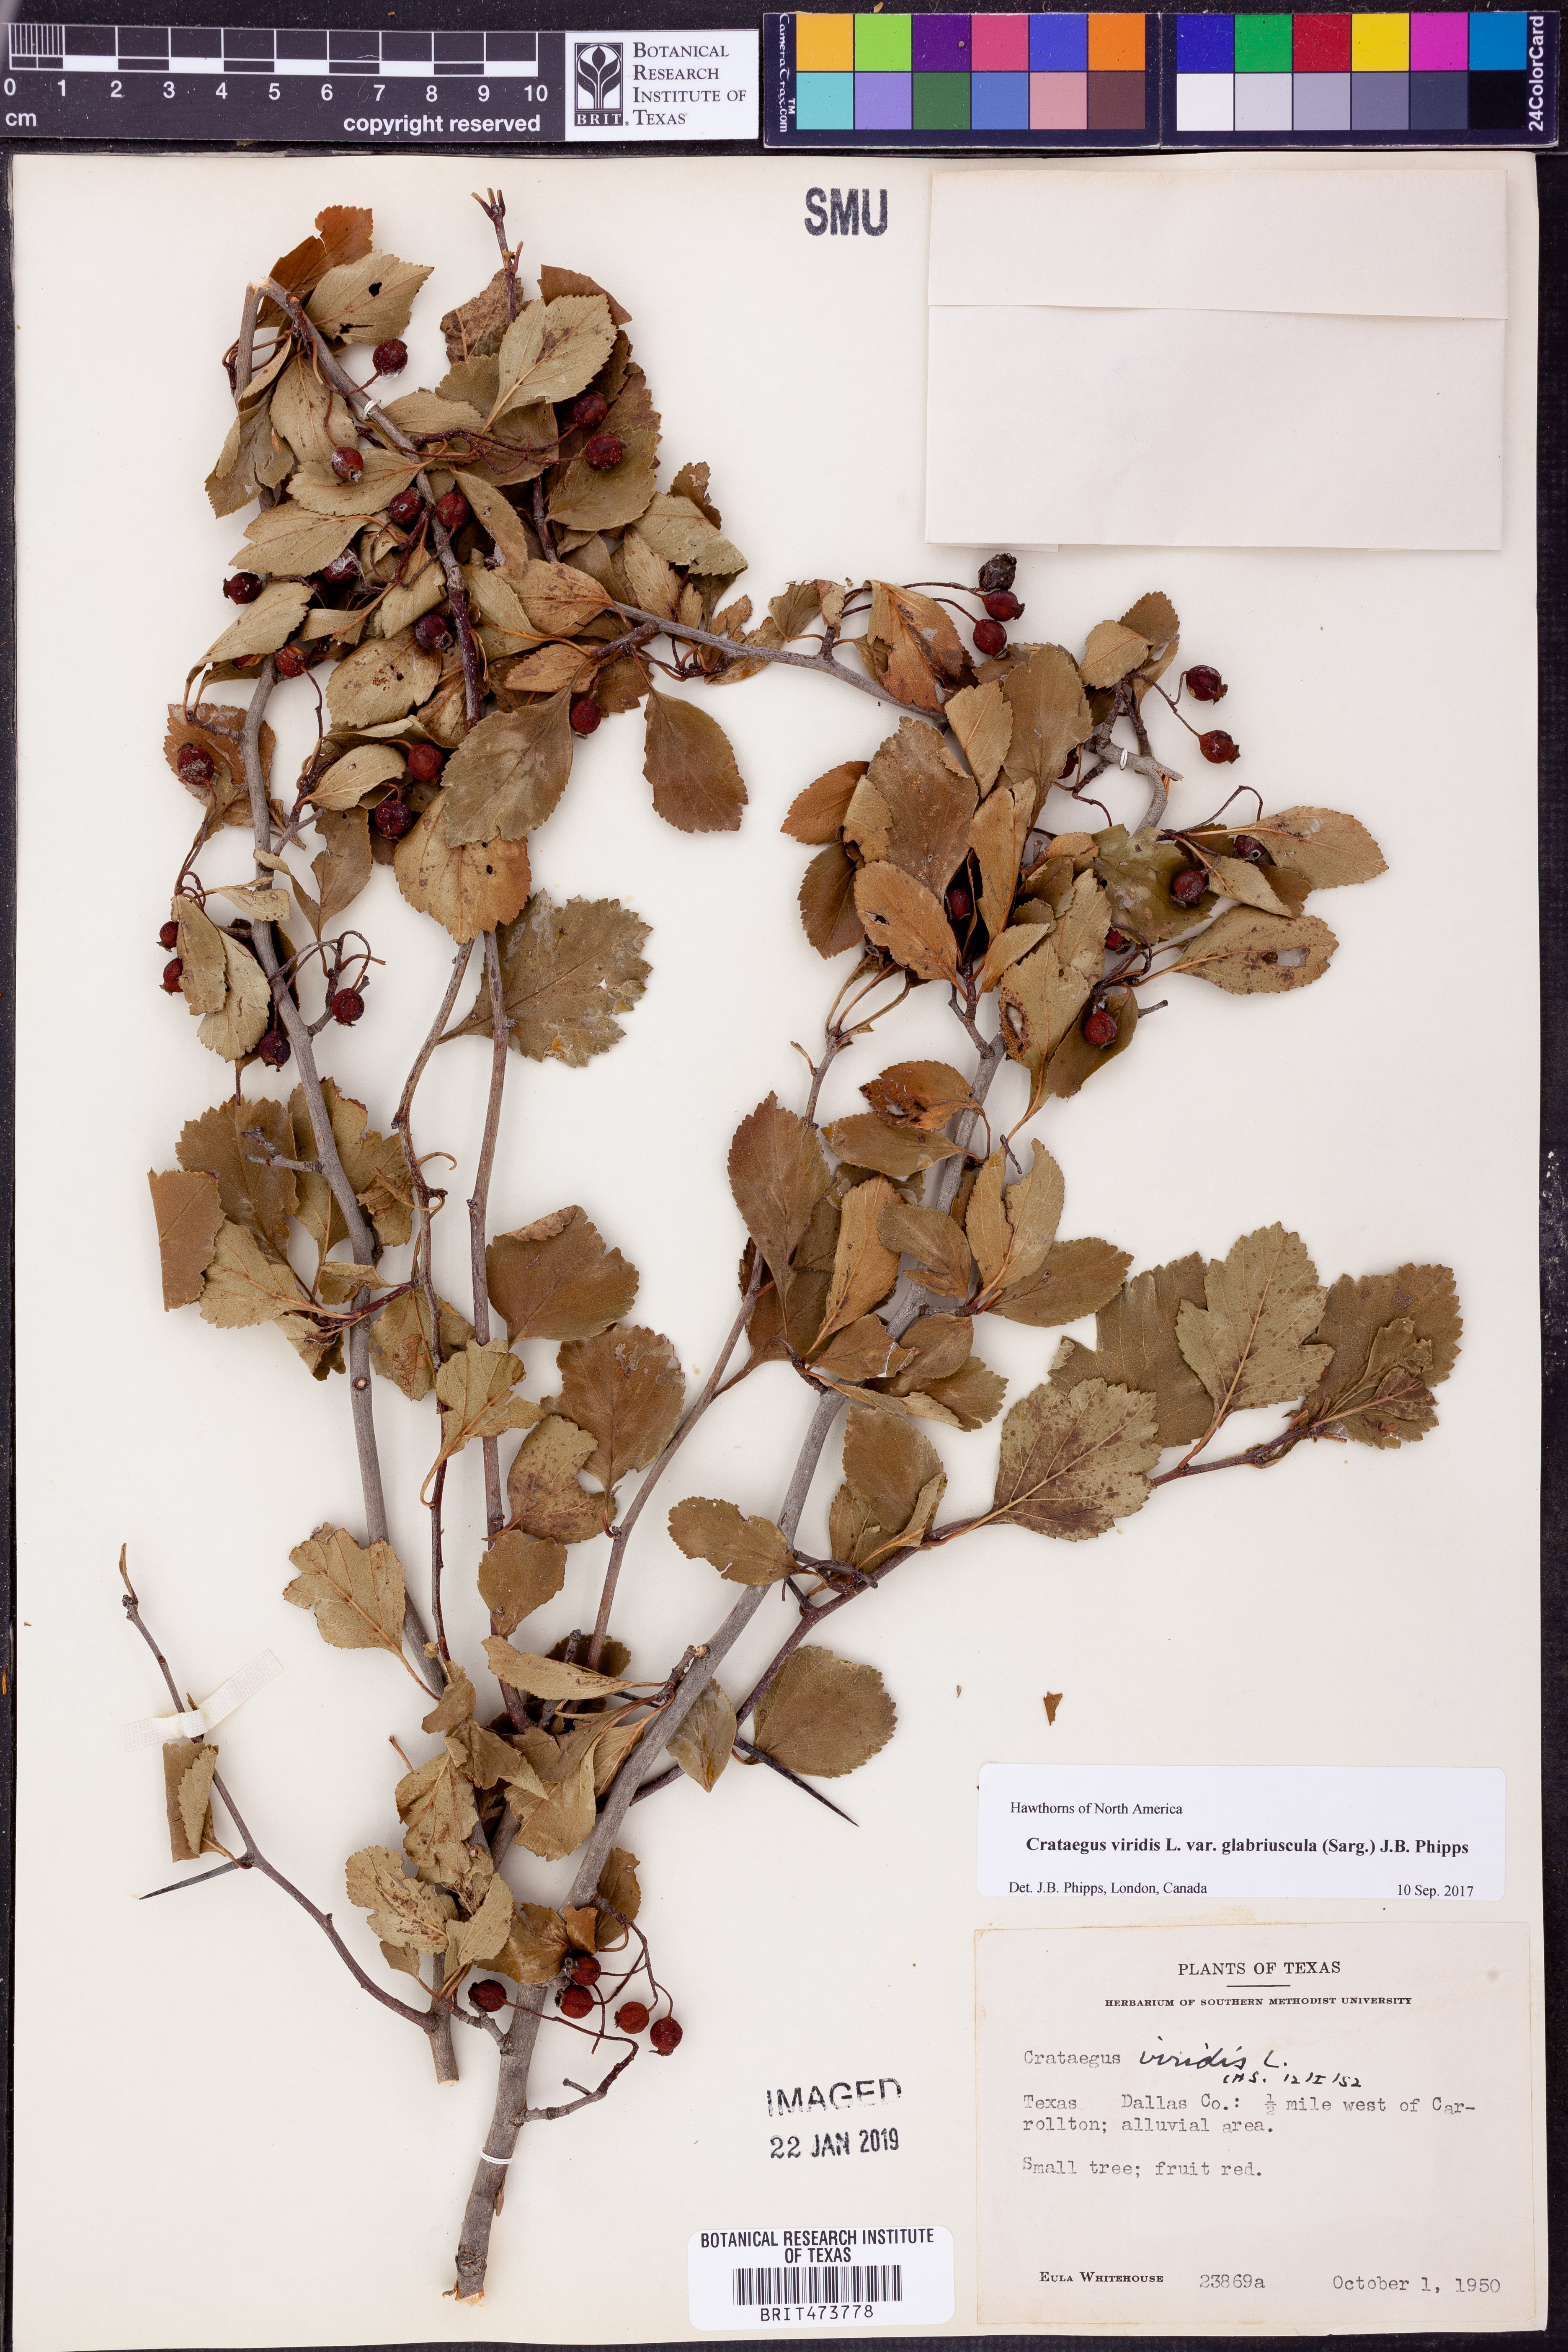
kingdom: Plantae
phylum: Tracheophyta
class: Magnoliopsida
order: Rosales
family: Rosaceae
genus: Crataegus
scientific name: Crataegus viridis
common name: Southernthorn
